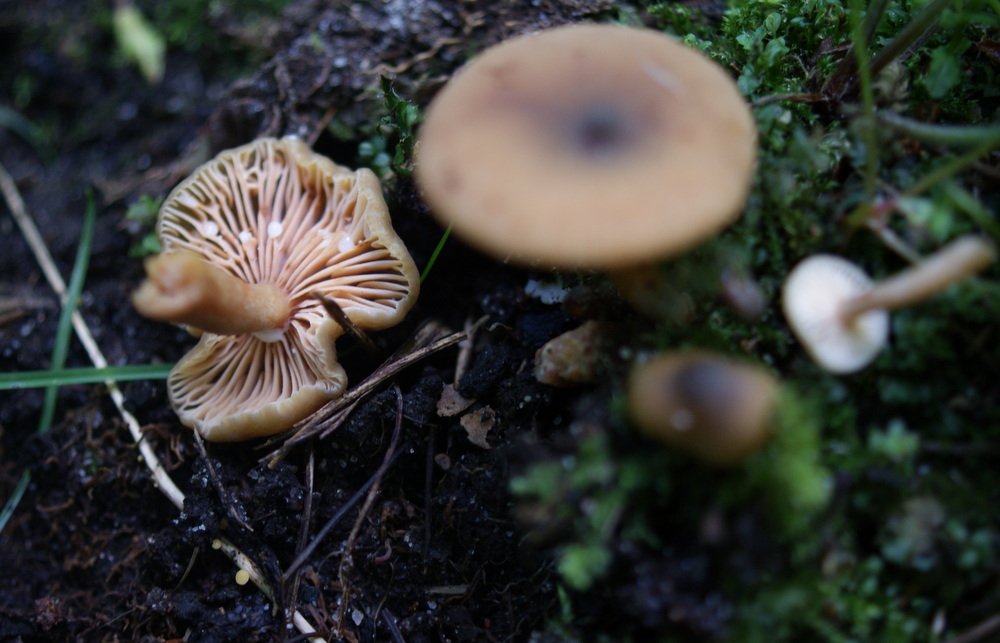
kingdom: Fungi
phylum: Basidiomycota
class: Agaricomycetes
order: Russulales
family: Russulaceae
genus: Lactarius
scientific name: Lactarius cyathuliformis
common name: mørkøjet mælkehat
